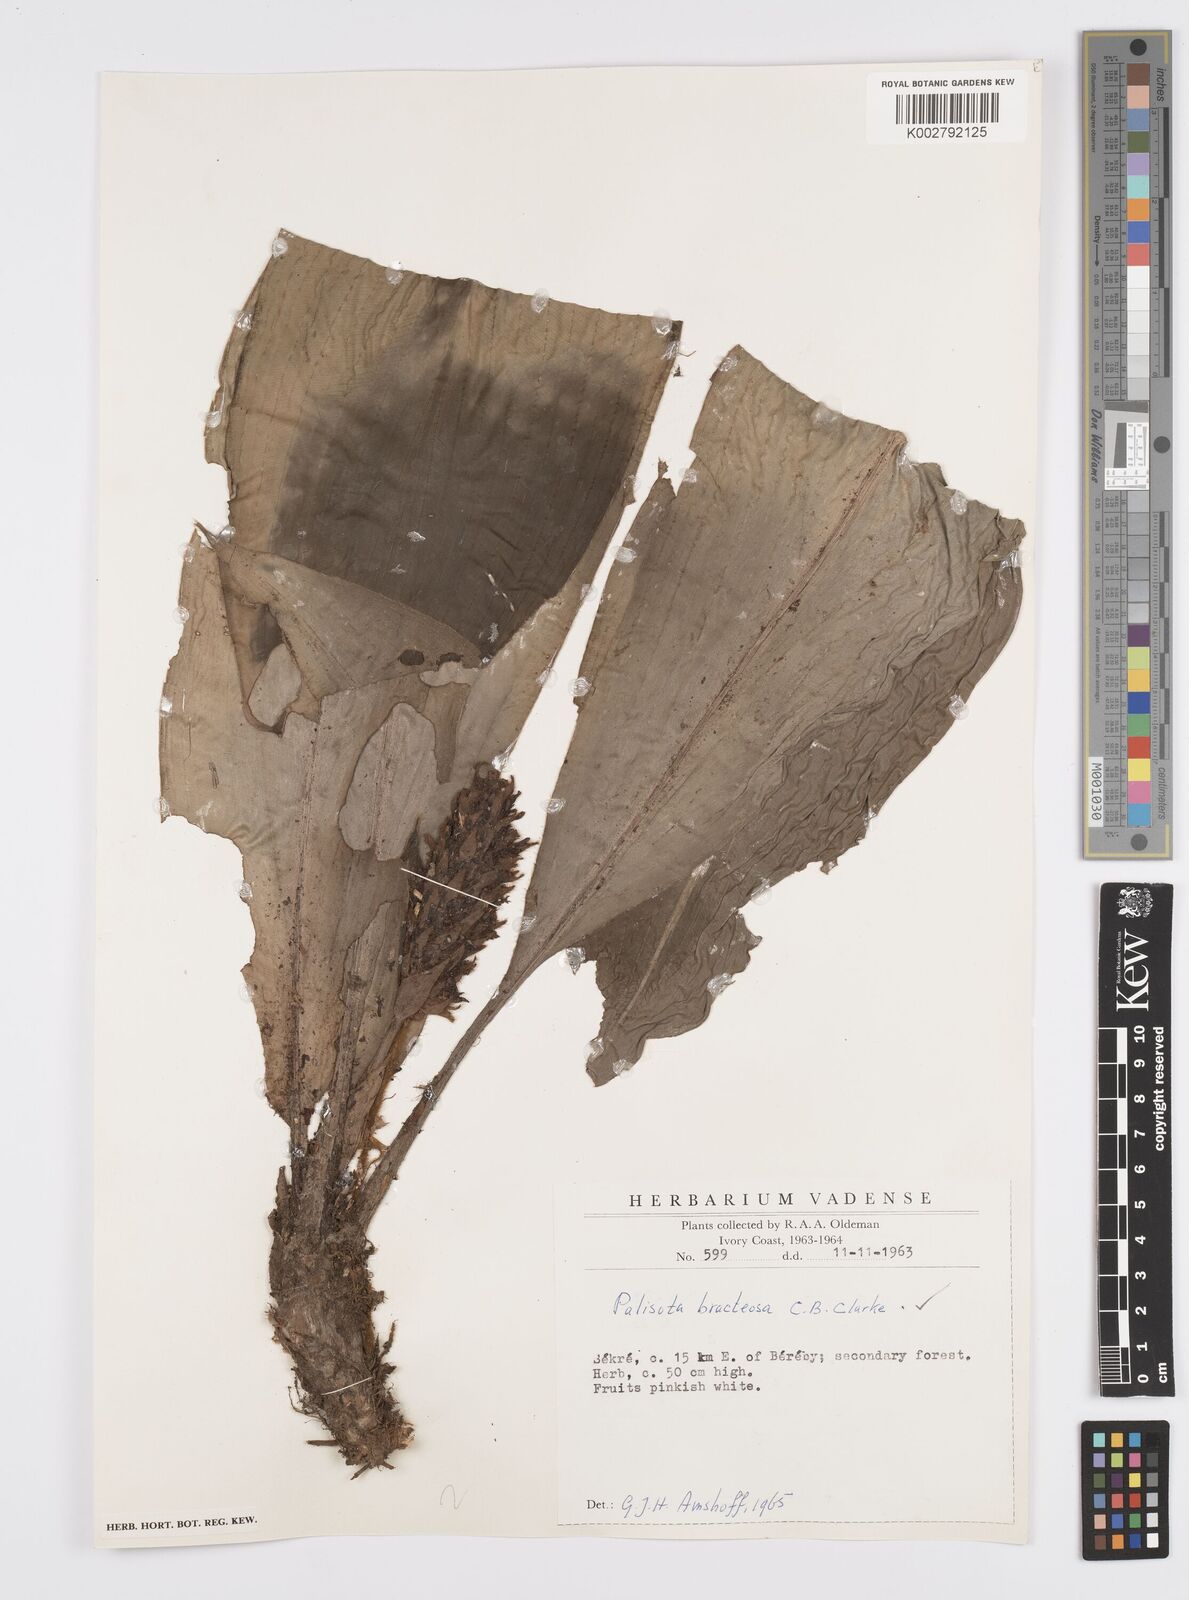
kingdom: Plantae
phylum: Tracheophyta
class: Liliopsida
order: Commelinales
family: Commelinaceae
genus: Palisota
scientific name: Palisota bracteosa
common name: Palisota
